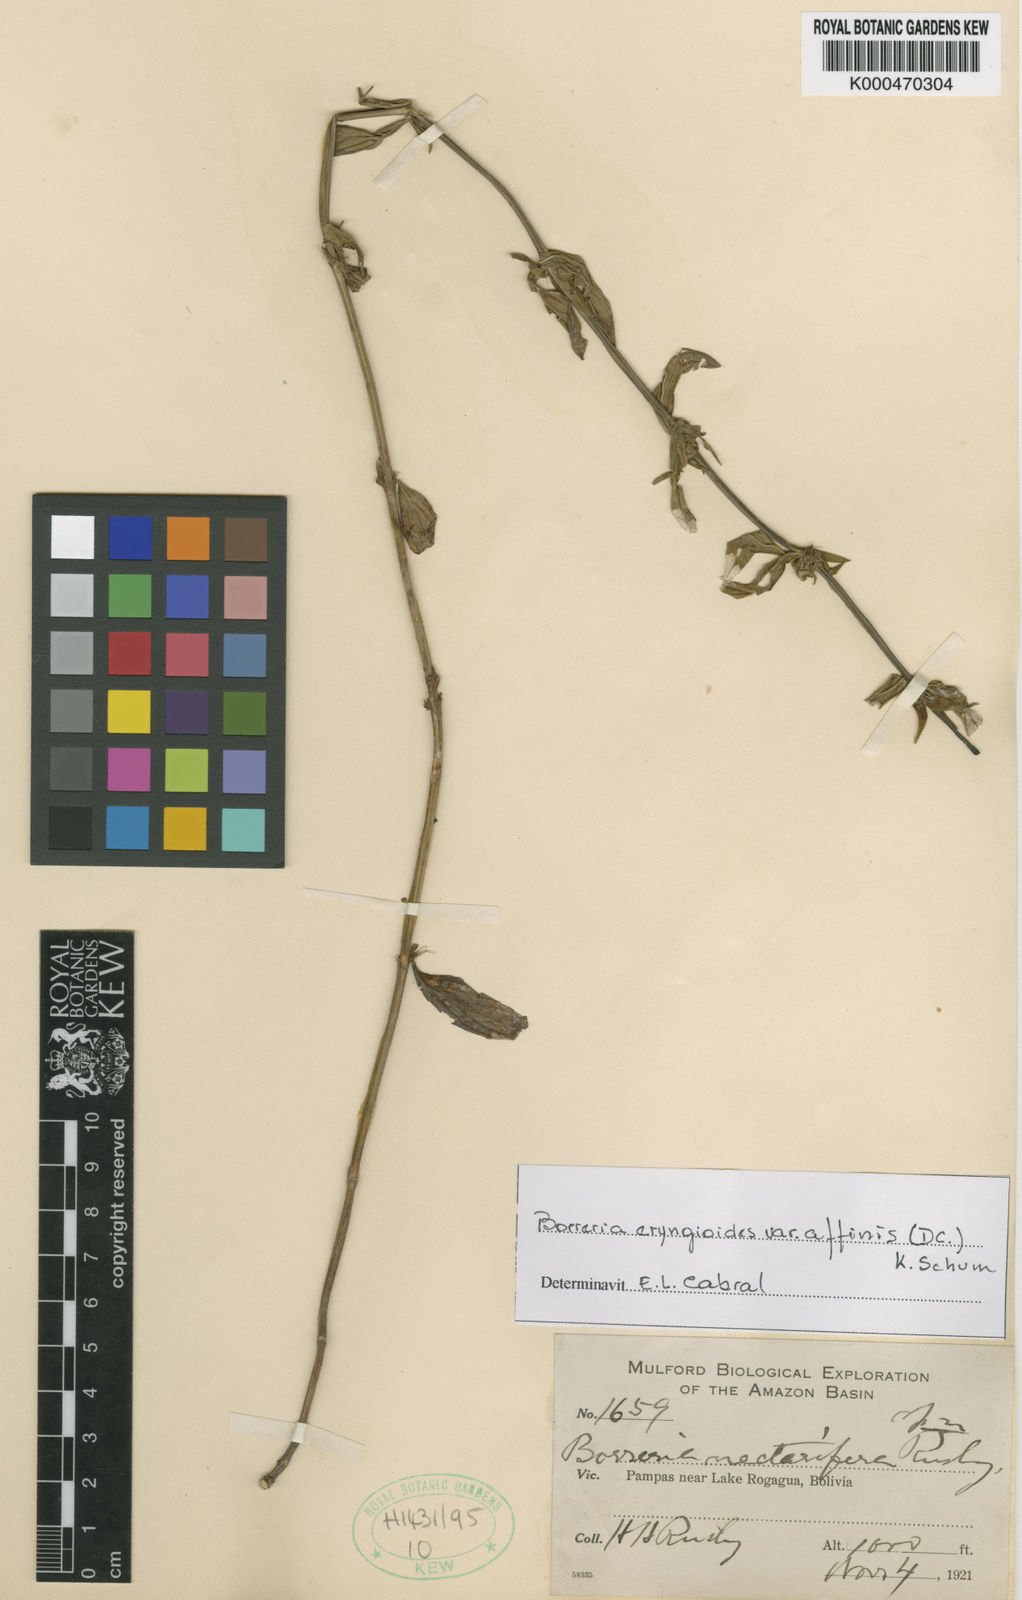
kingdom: Plantae
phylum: Tracheophyta
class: Magnoliopsida
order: Gentianales
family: Rubiaceae
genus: Spermacoce
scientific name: Spermacoce
